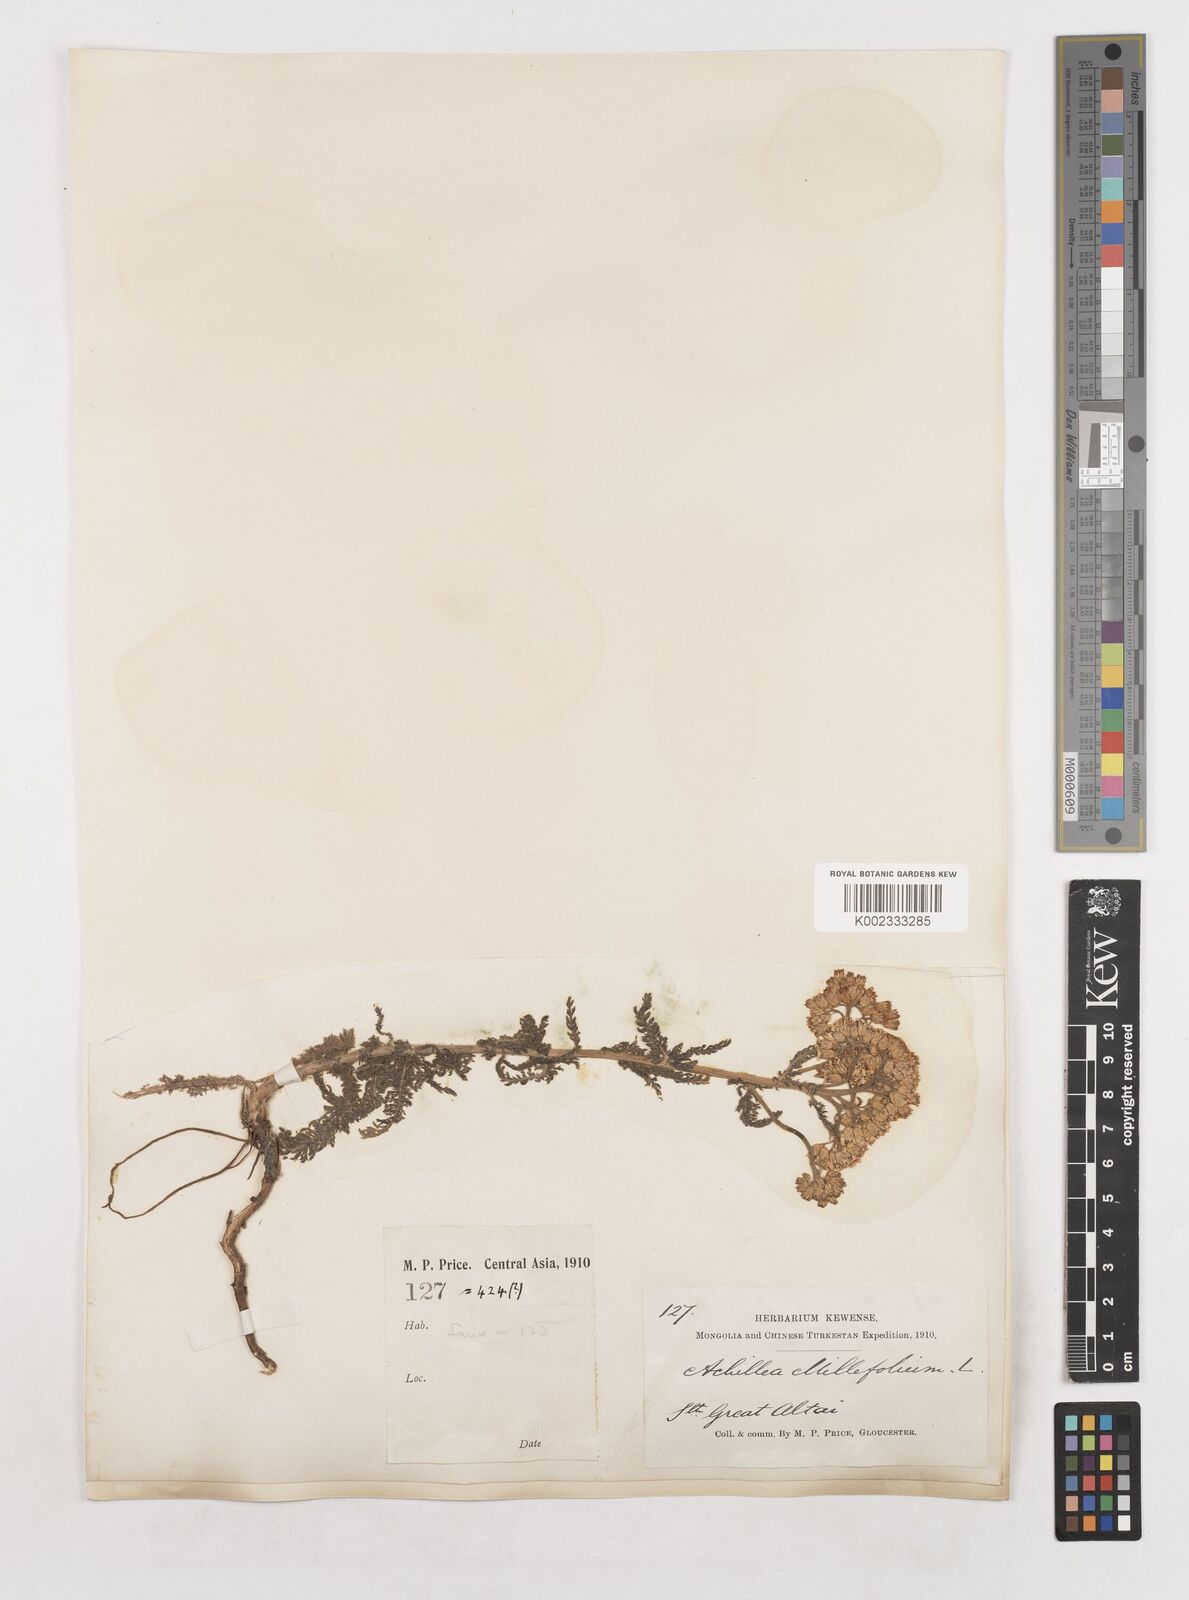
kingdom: Plantae
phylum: Tracheophyta
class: Magnoliopsida
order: Asterales
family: Asteraceae
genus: Achillea
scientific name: Achillea setacea
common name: Bristly yarrow
